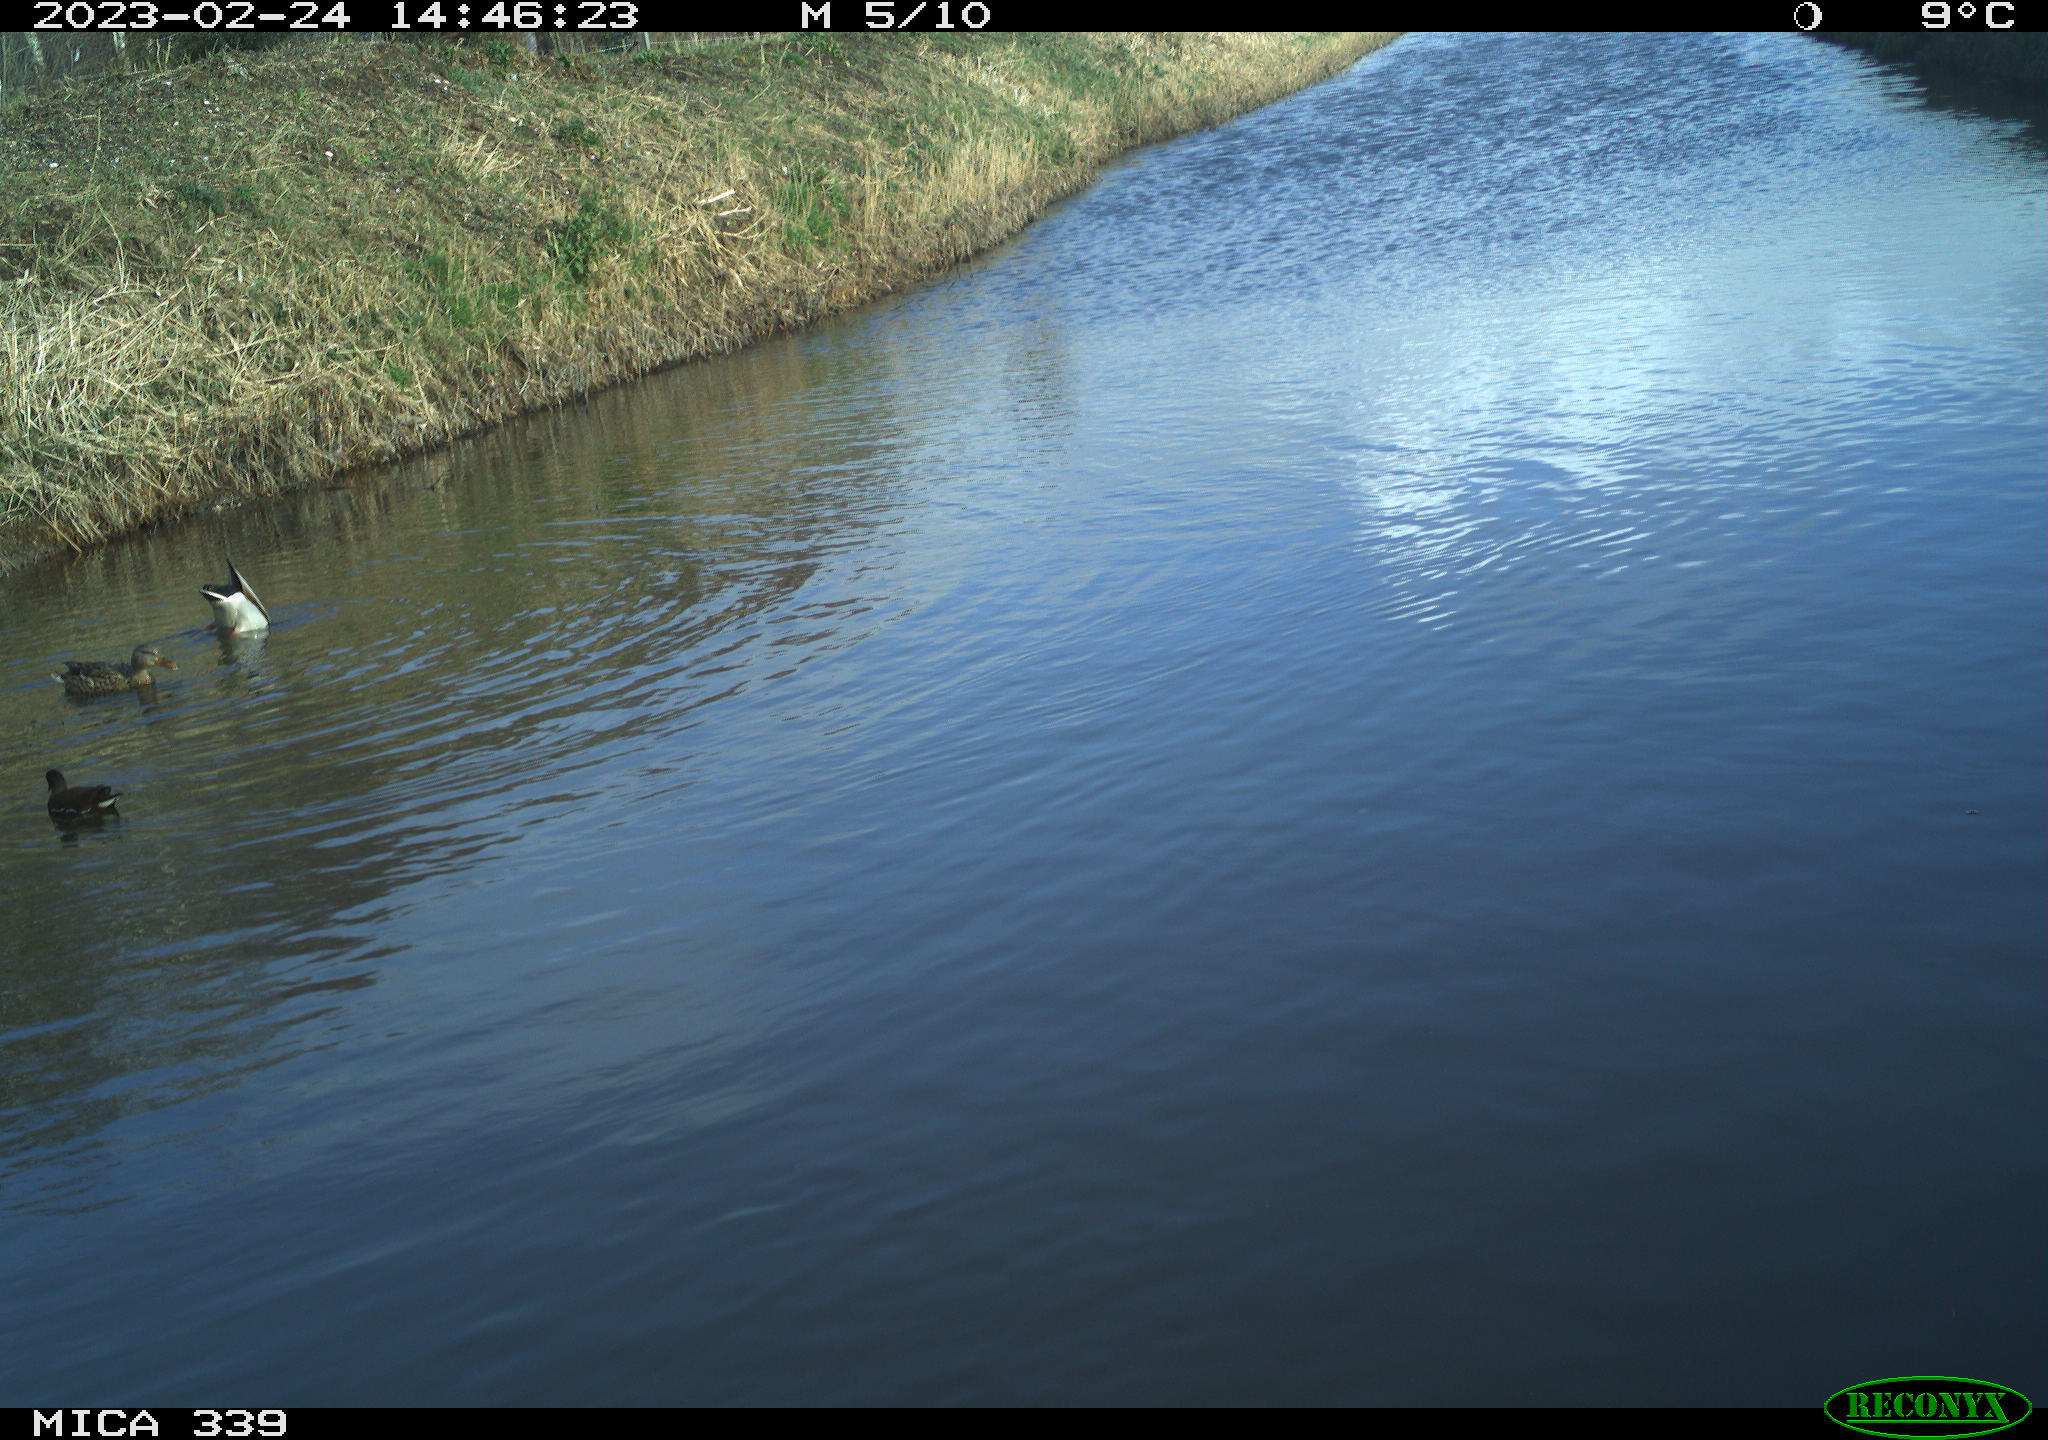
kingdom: Animalia
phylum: Chordata
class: Aves
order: Anseriformes
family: Anatidae
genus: Anas
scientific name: Anas
